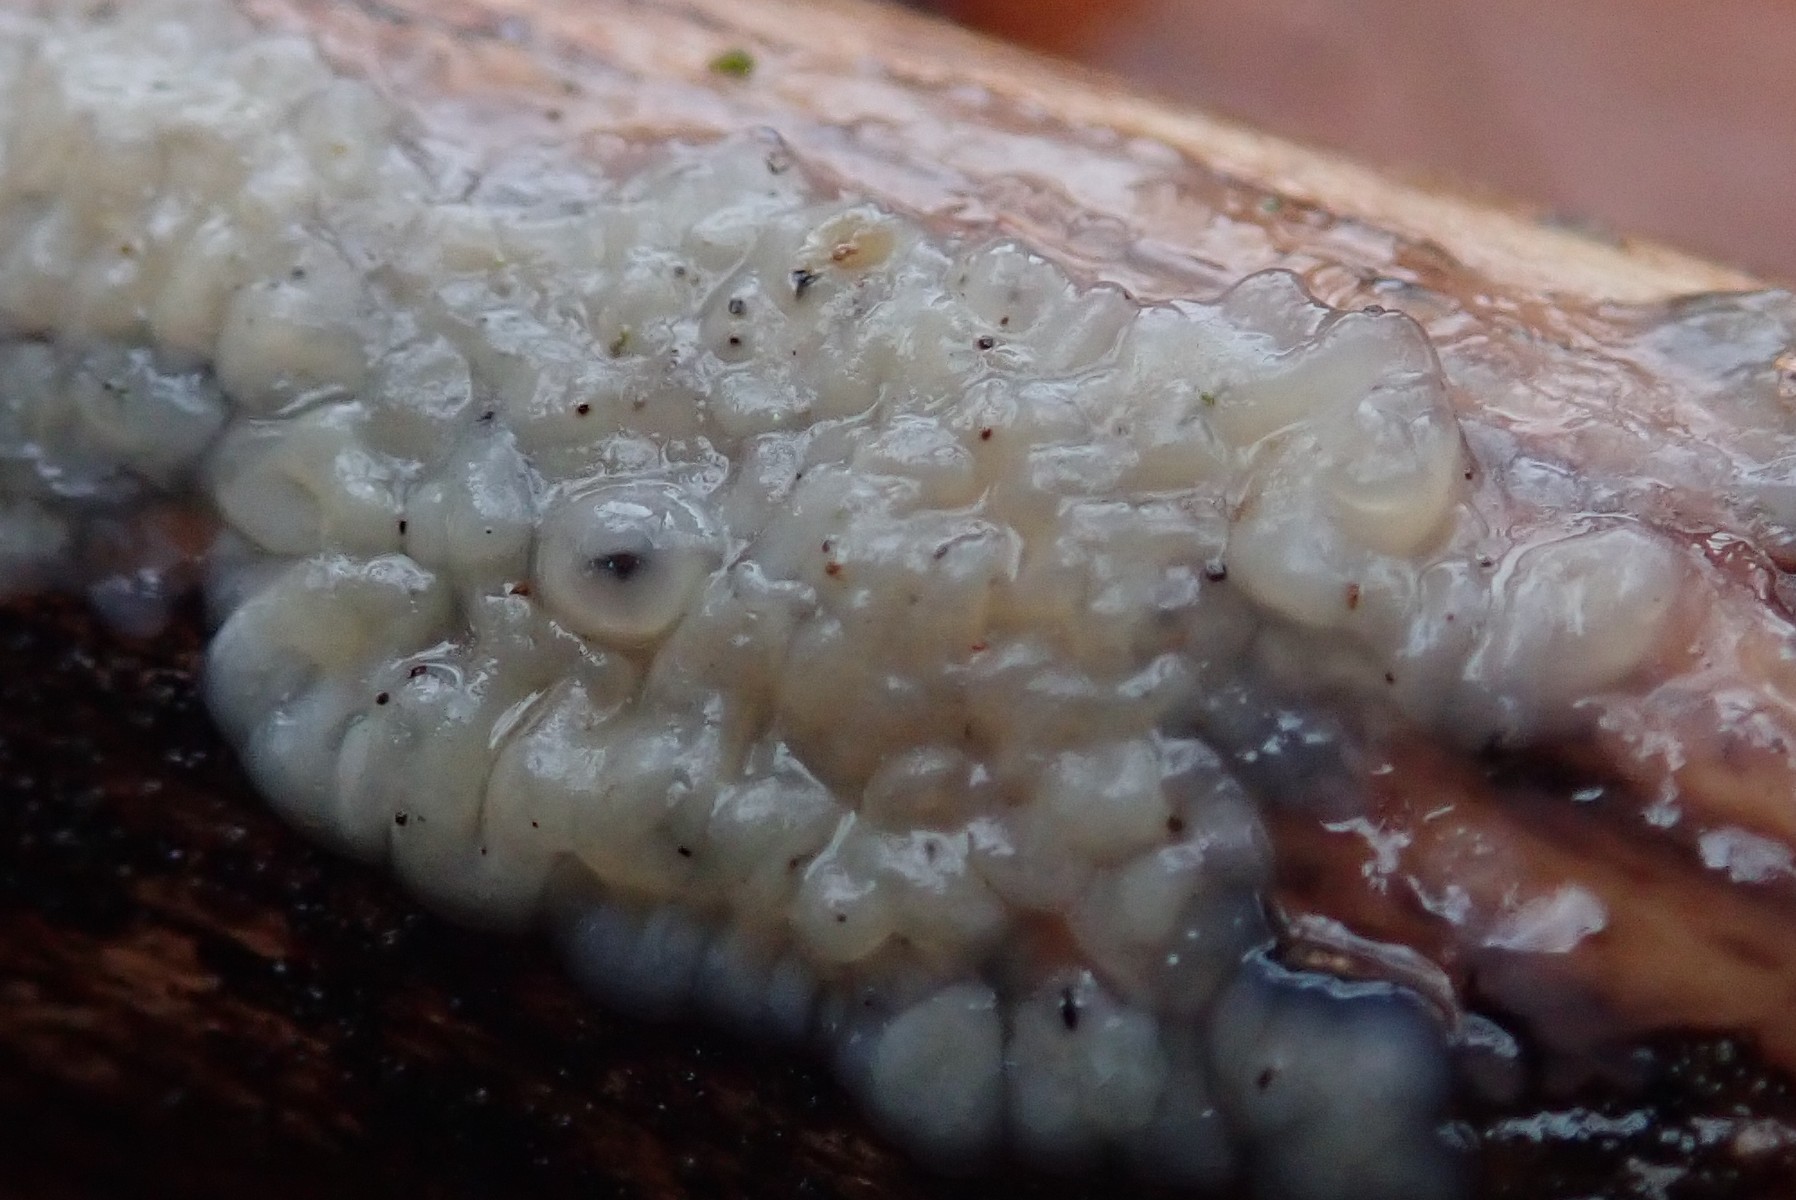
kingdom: Fungi
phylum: Basidiomycota
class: Agaricomycetes
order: Auriculariales
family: Auriculariaceae
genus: Exidia
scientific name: Exidia thuretiana
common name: hvidlig bævretop
